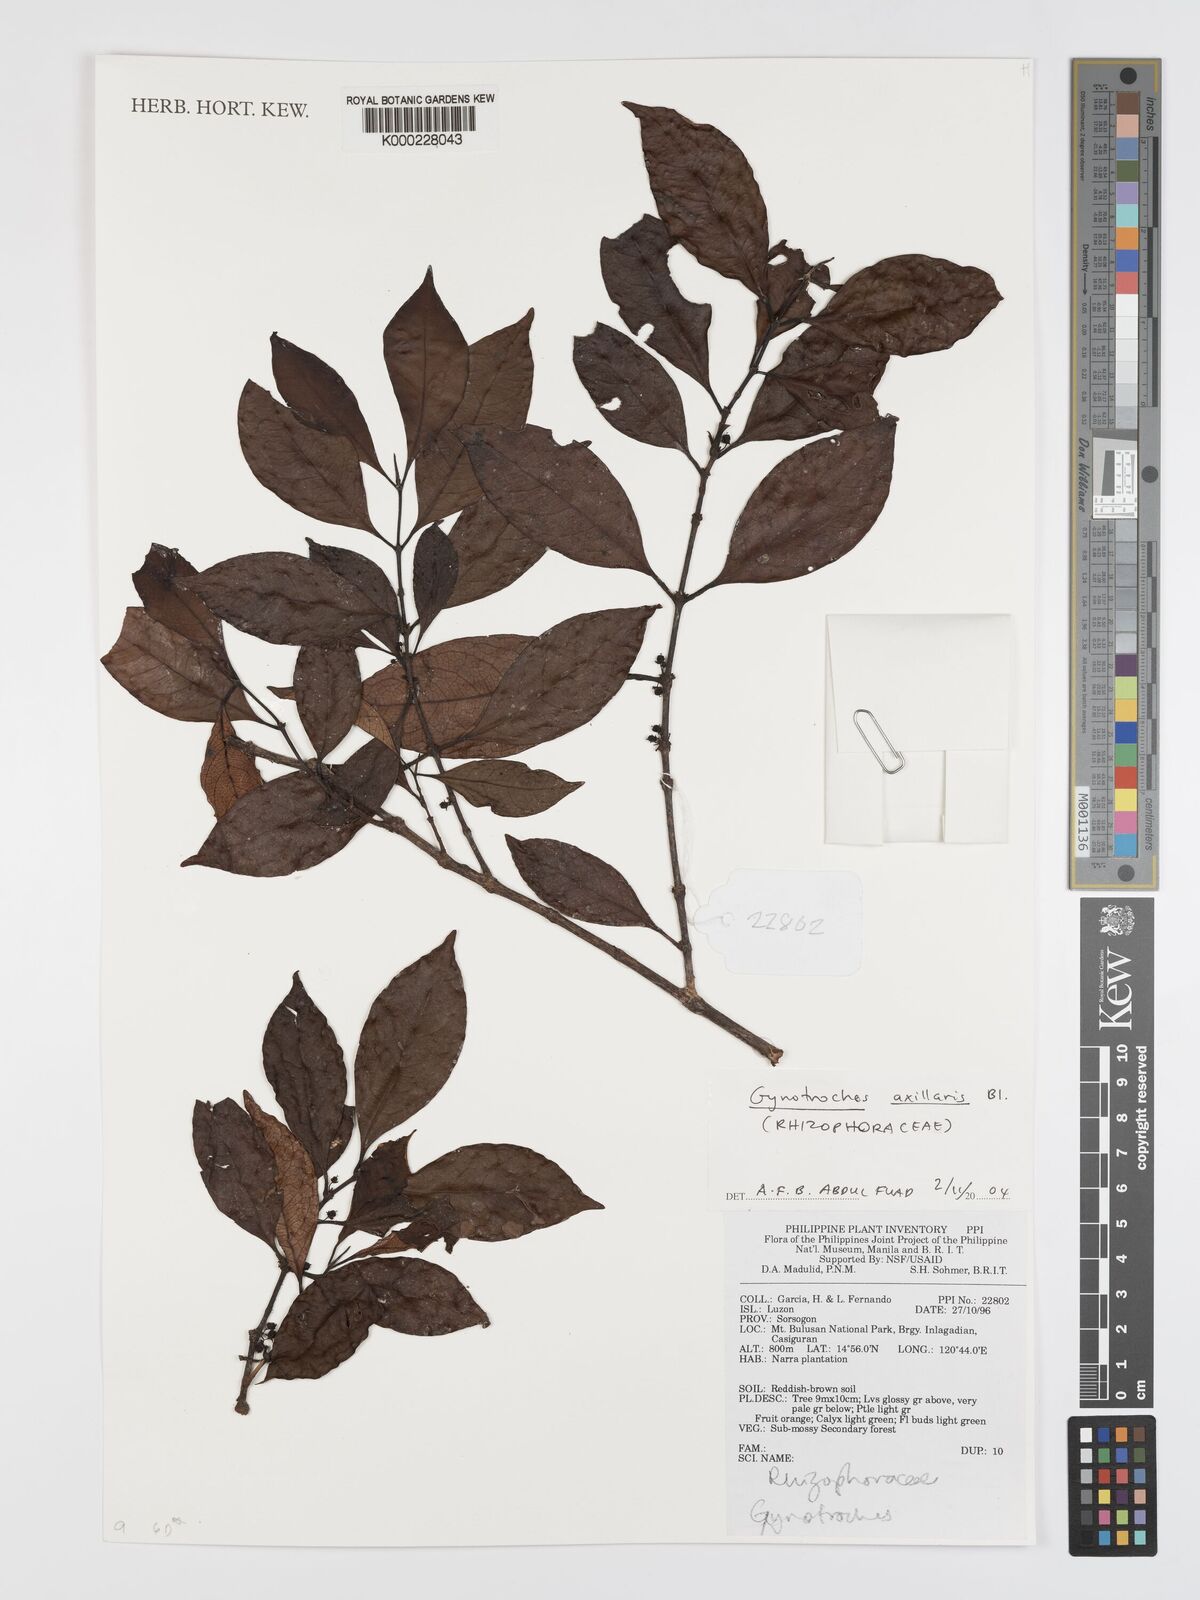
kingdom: Plantae
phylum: Tracheophyta
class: Magnoliopsida
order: Malpighiales
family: Rhizophoraceae
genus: Gynotroches
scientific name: Gynotroches axillaris
